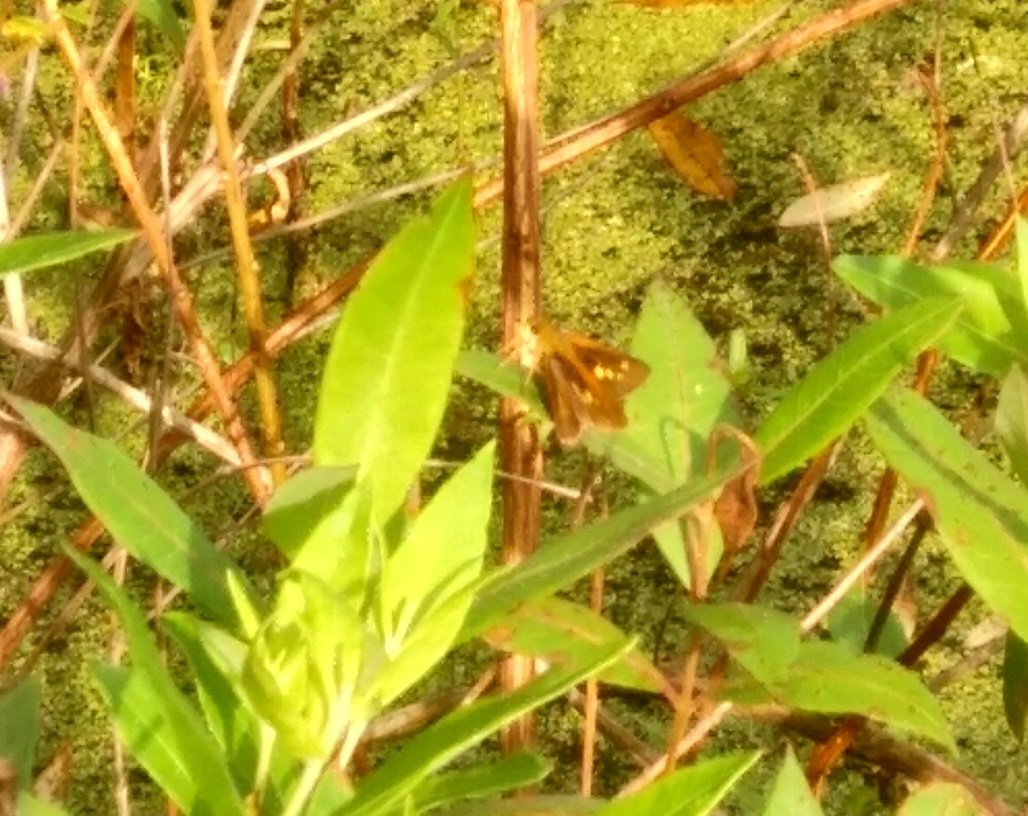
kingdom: Animalia
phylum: Arthropoda
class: Insecta
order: Lepidoptera
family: Hesperiidae
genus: Euphyes
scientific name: Euphyes dion
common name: Dion Skipper
